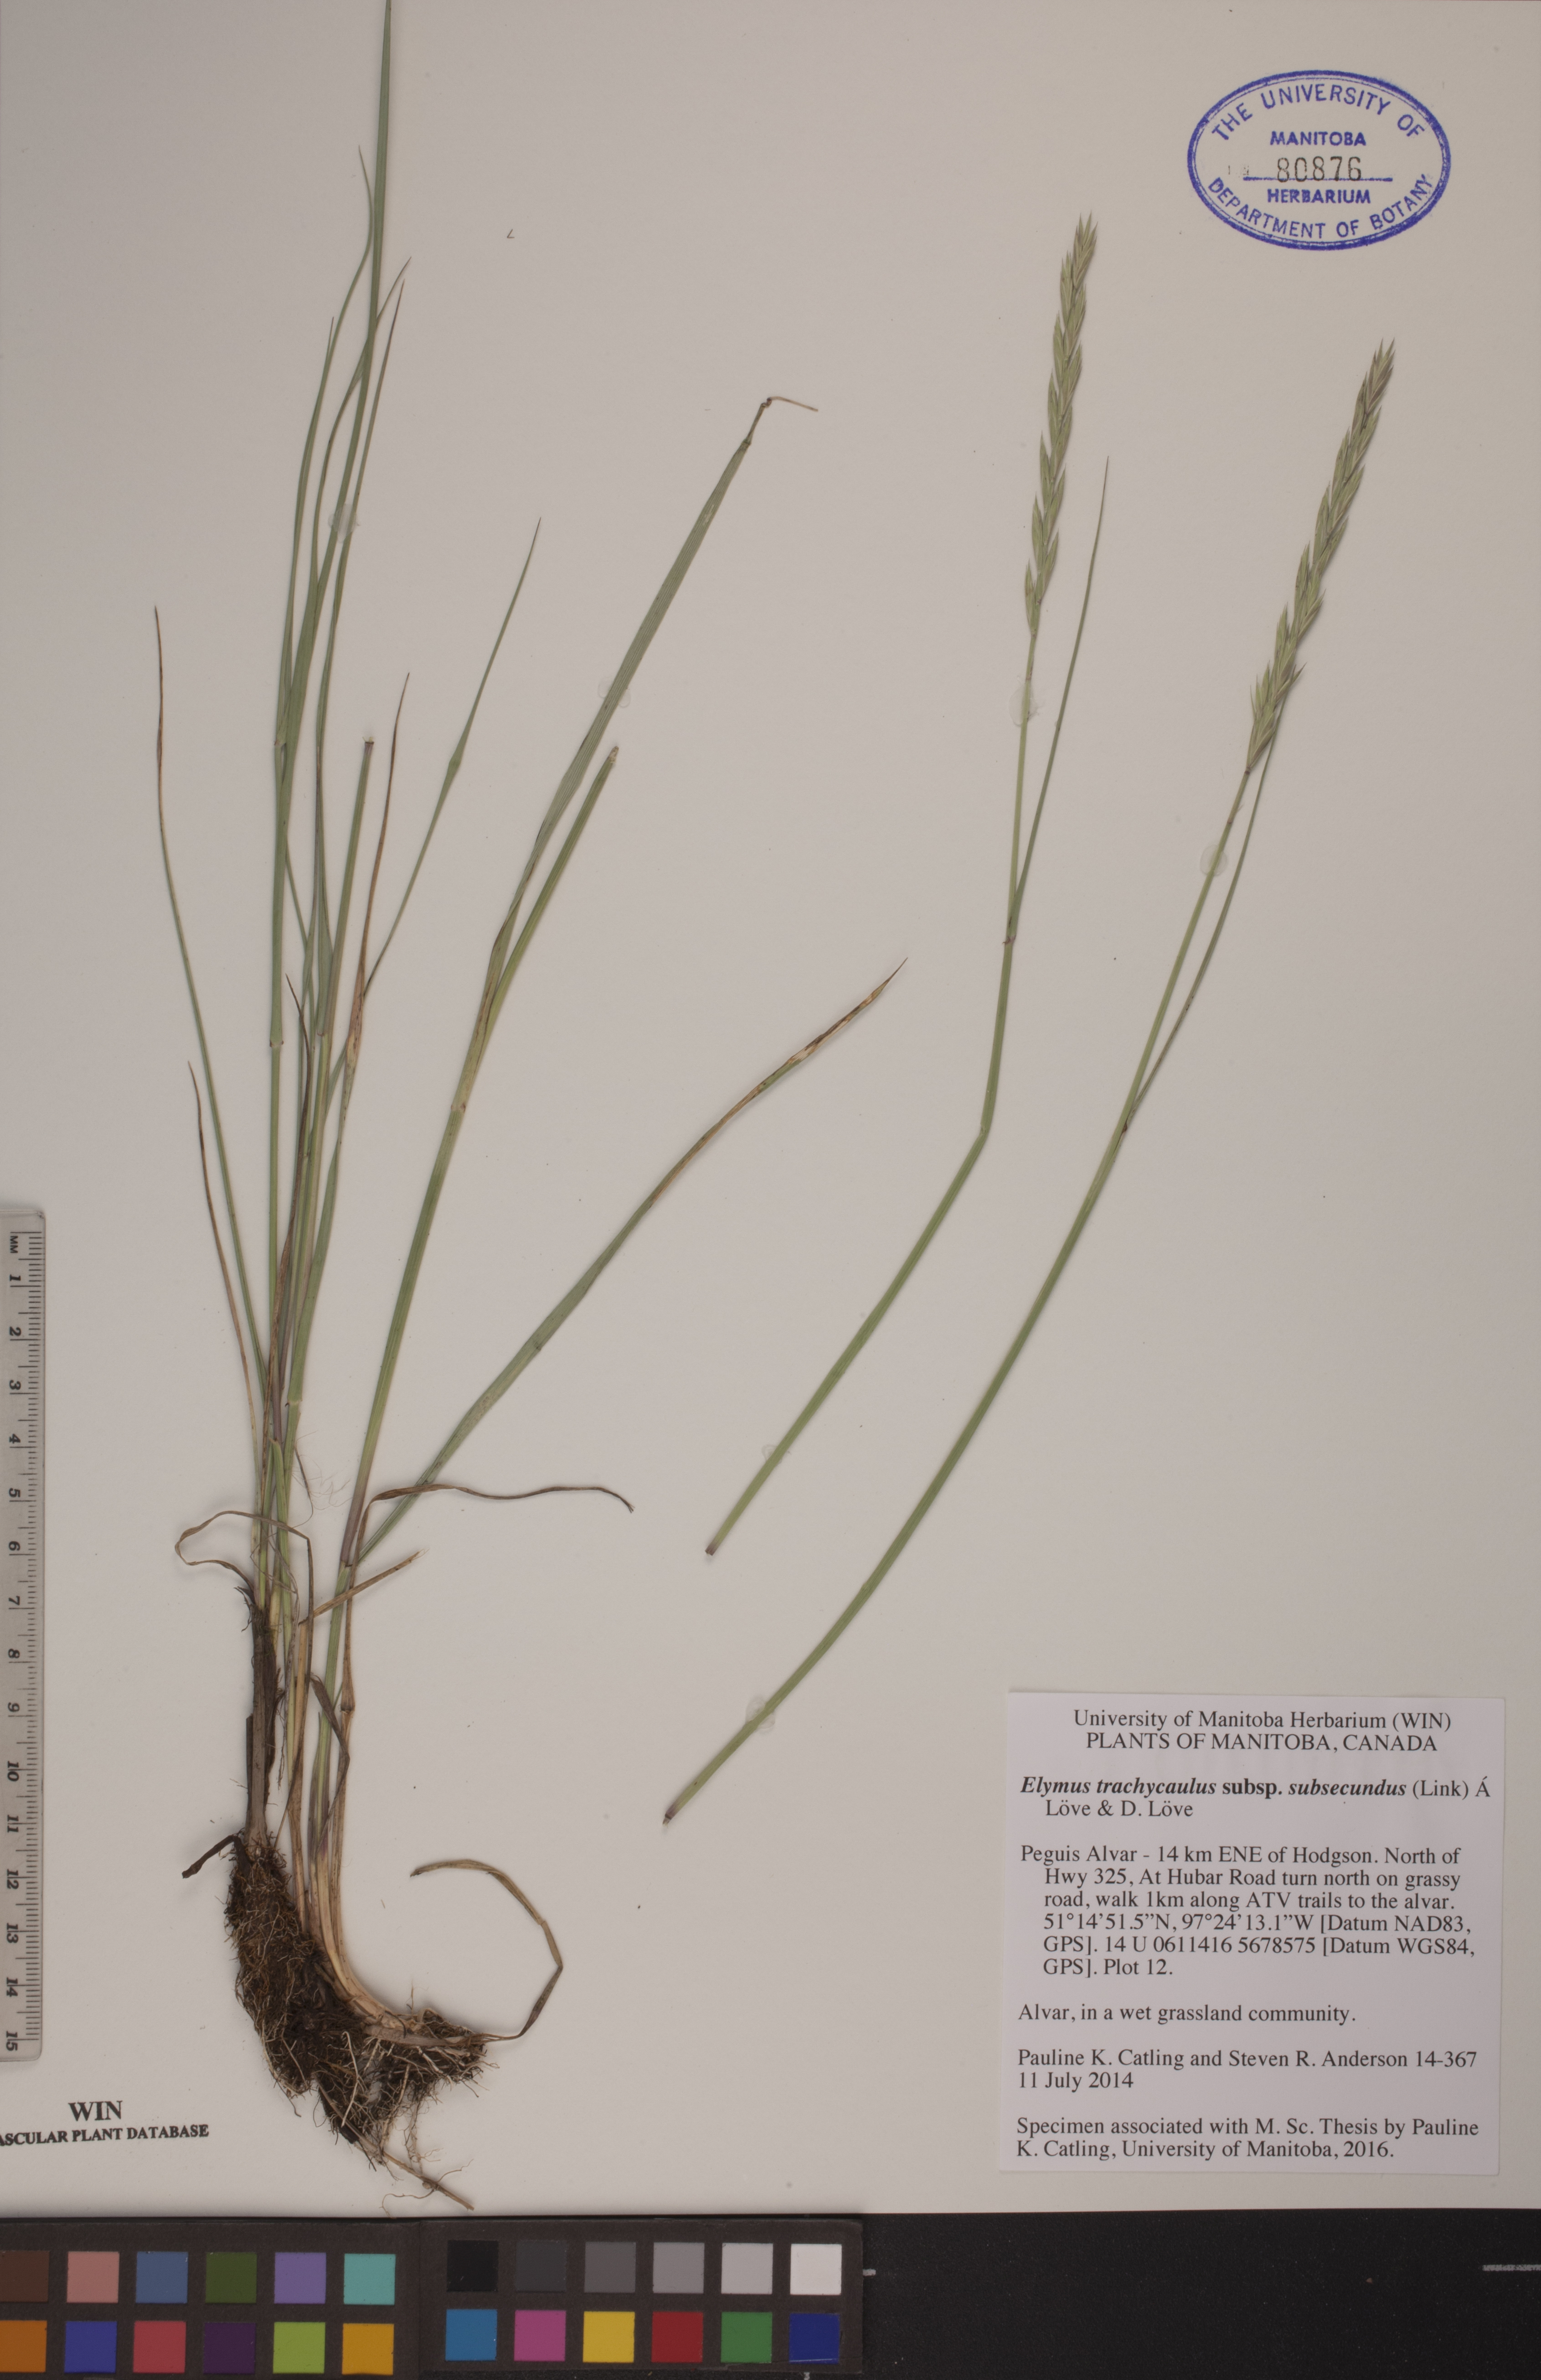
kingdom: Plantae
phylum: Tracheophyta
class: Liliopsida
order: Poales
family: Poaceae
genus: Elymus
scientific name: Elymus violaceus
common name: Arctic wheatgrass
